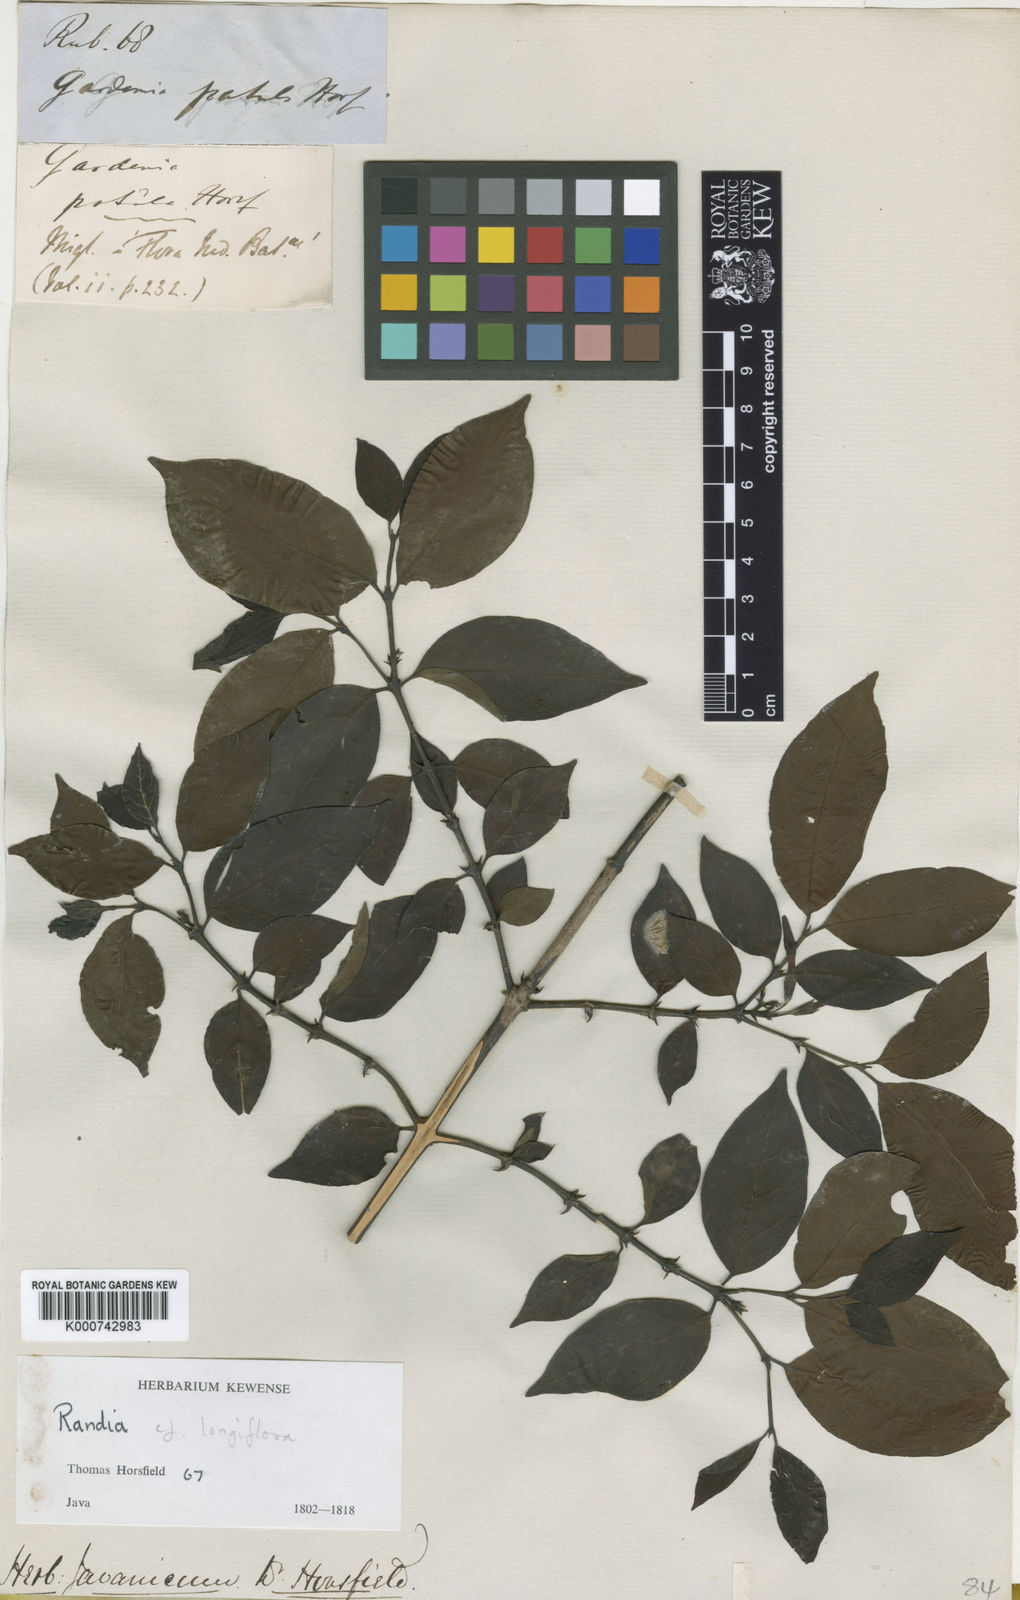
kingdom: Plantae
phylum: Tracheophyta
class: Magnoliopsida
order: Gentianales
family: Rubiaceae
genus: Oxyceros
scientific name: Oxyceros patulus
